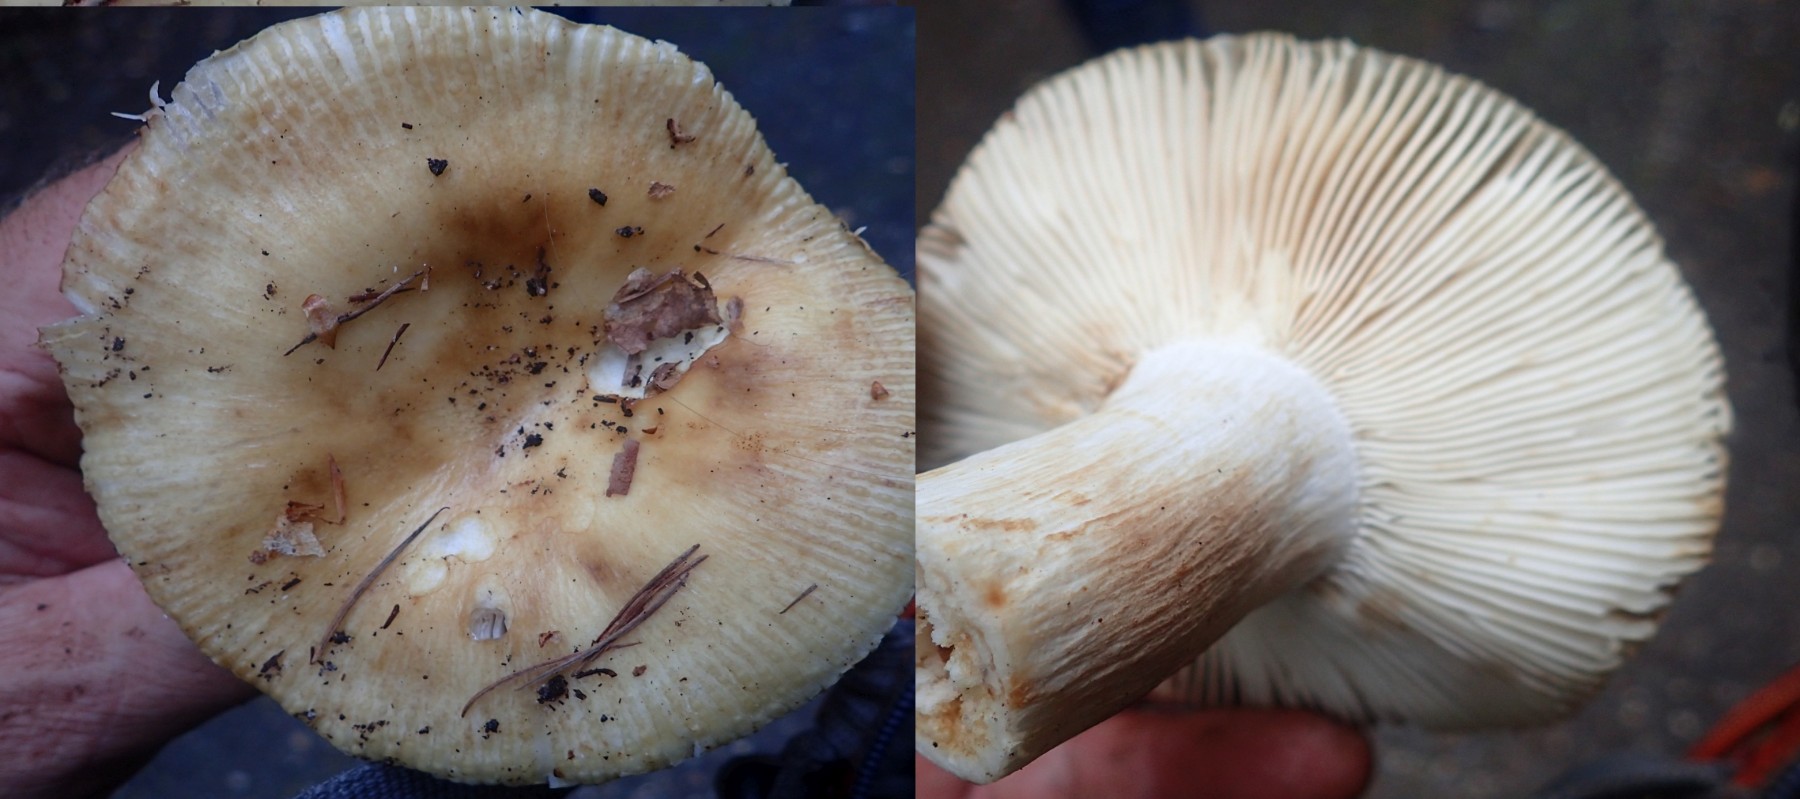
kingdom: Fungi
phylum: Basidiomycota
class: Agaricomycetes
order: Russulales
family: Russulaceae
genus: Russula
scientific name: Russula grata
